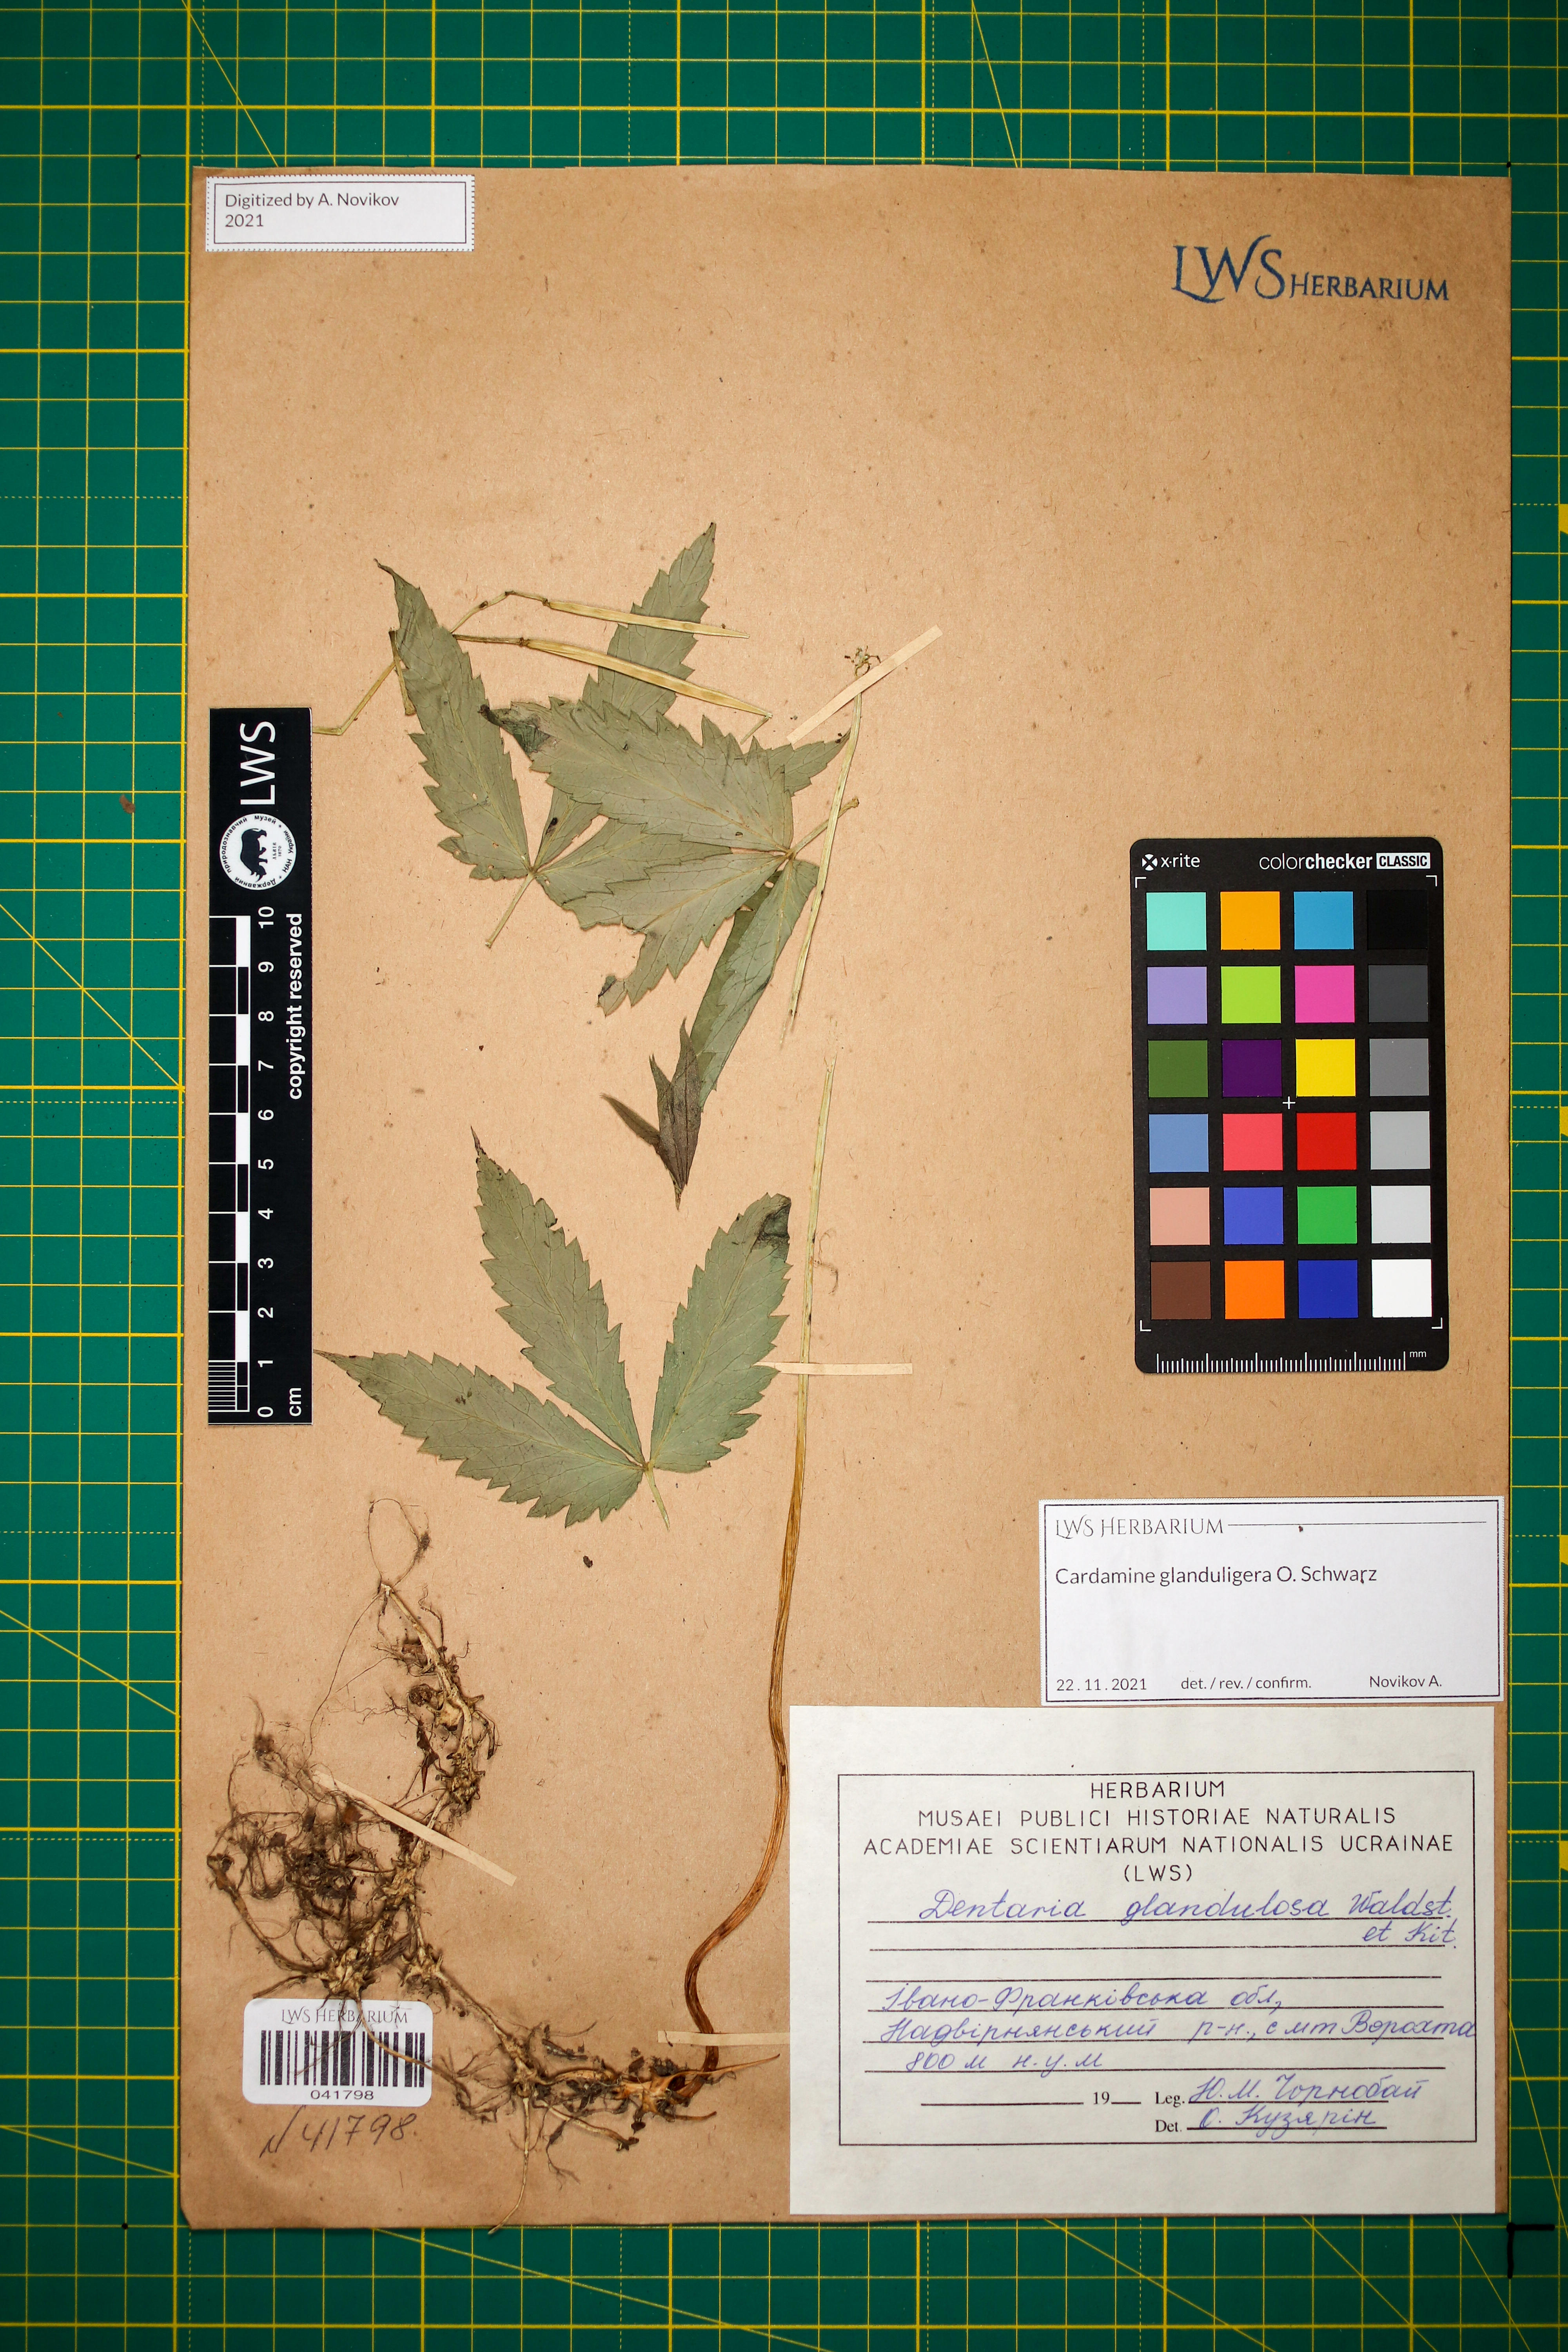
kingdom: Plantae
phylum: Tracheophyta
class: Magnoliopsida
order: Brassicales
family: Brassicaceae
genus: Cardamine
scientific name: Cardamine glanduligera
